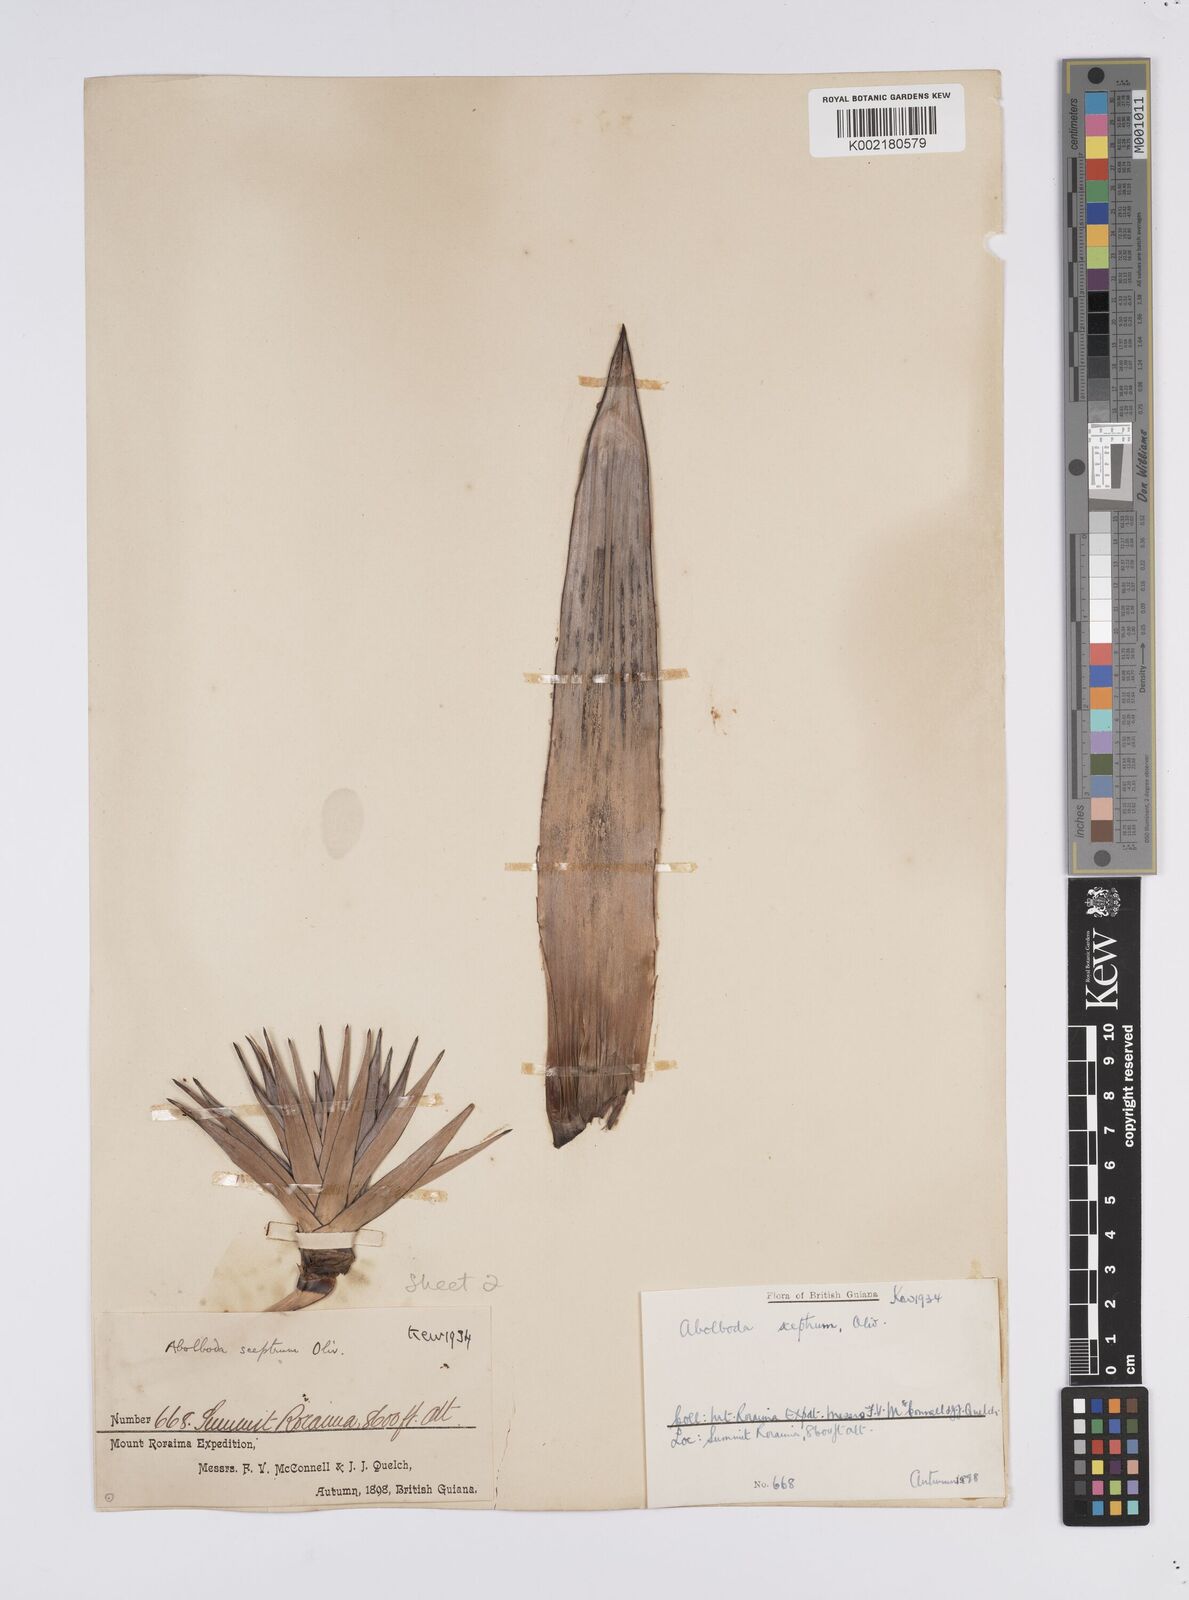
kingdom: Plantae
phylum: Tracheophyta
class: Liliopsida
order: Poales
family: Xyridaceae
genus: Orectanthe
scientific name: Orectanthe sceptrum
